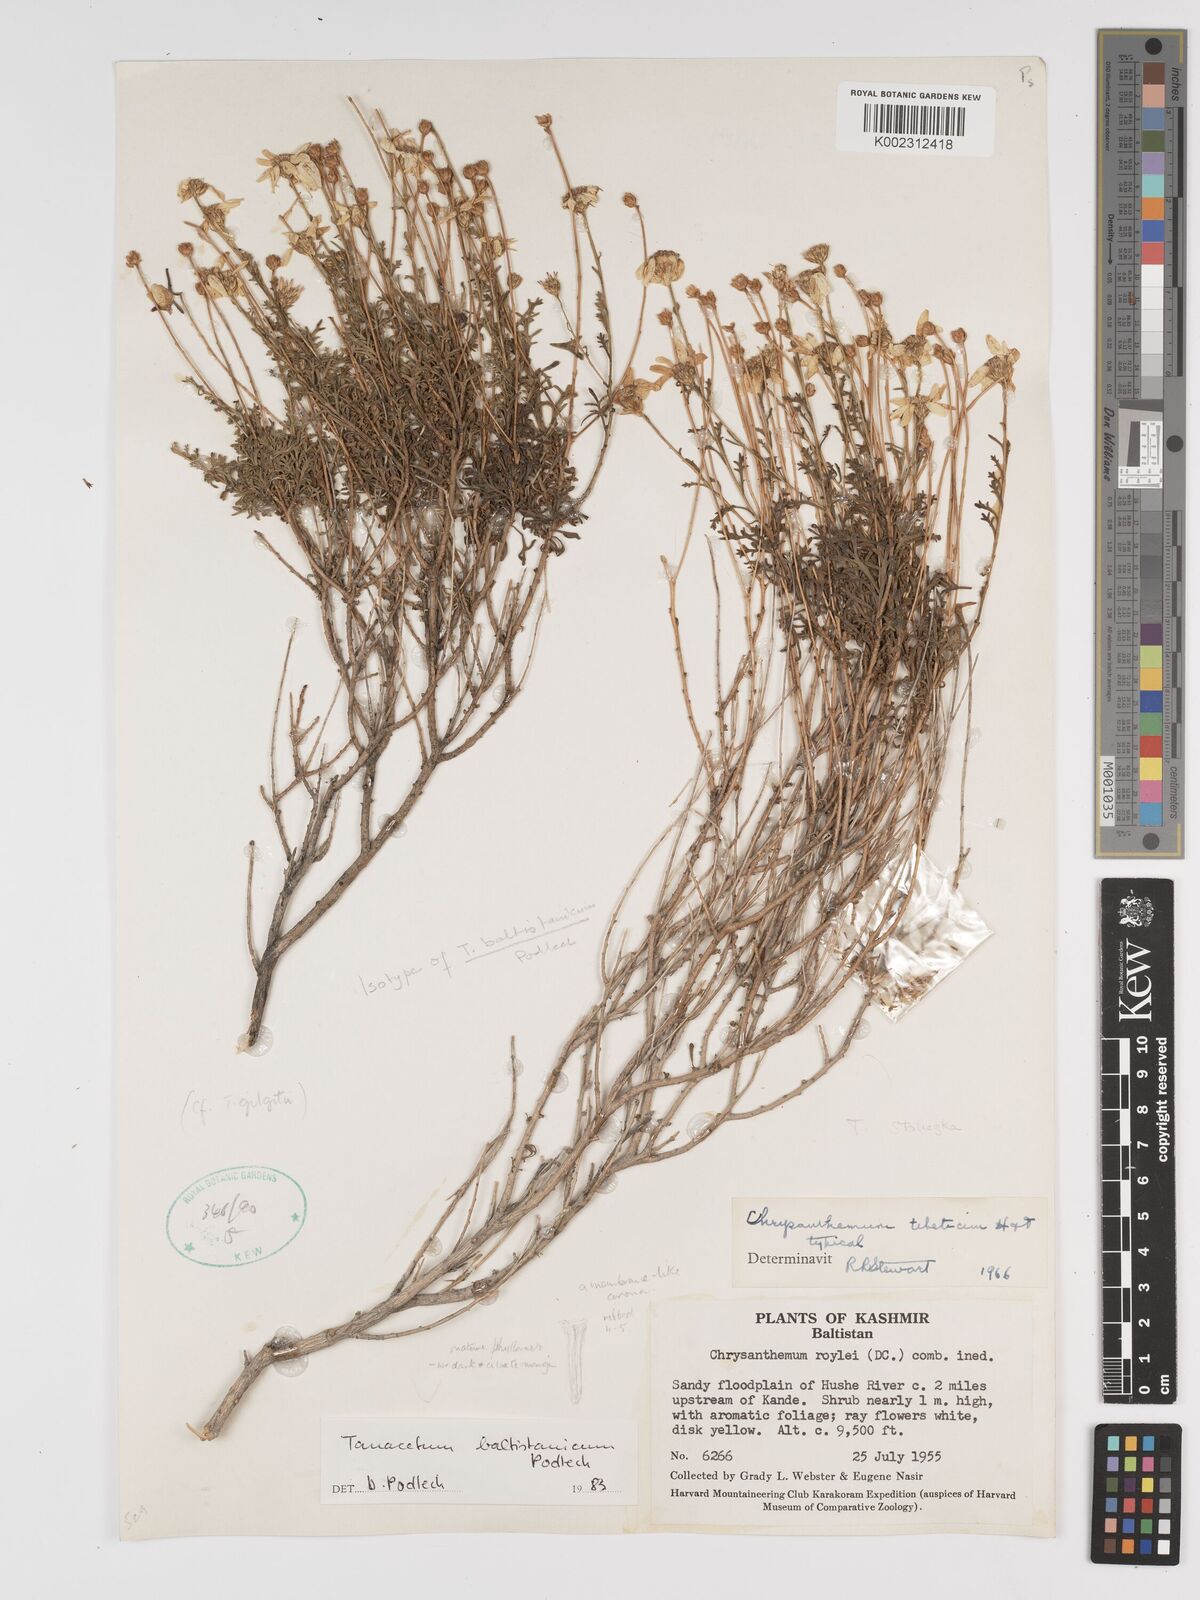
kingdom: Plantae
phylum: Tracheophyta
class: Magnoliopsida
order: Asterales
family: Asteraceae
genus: Tanacetum
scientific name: Tanacetum baltistanicum
